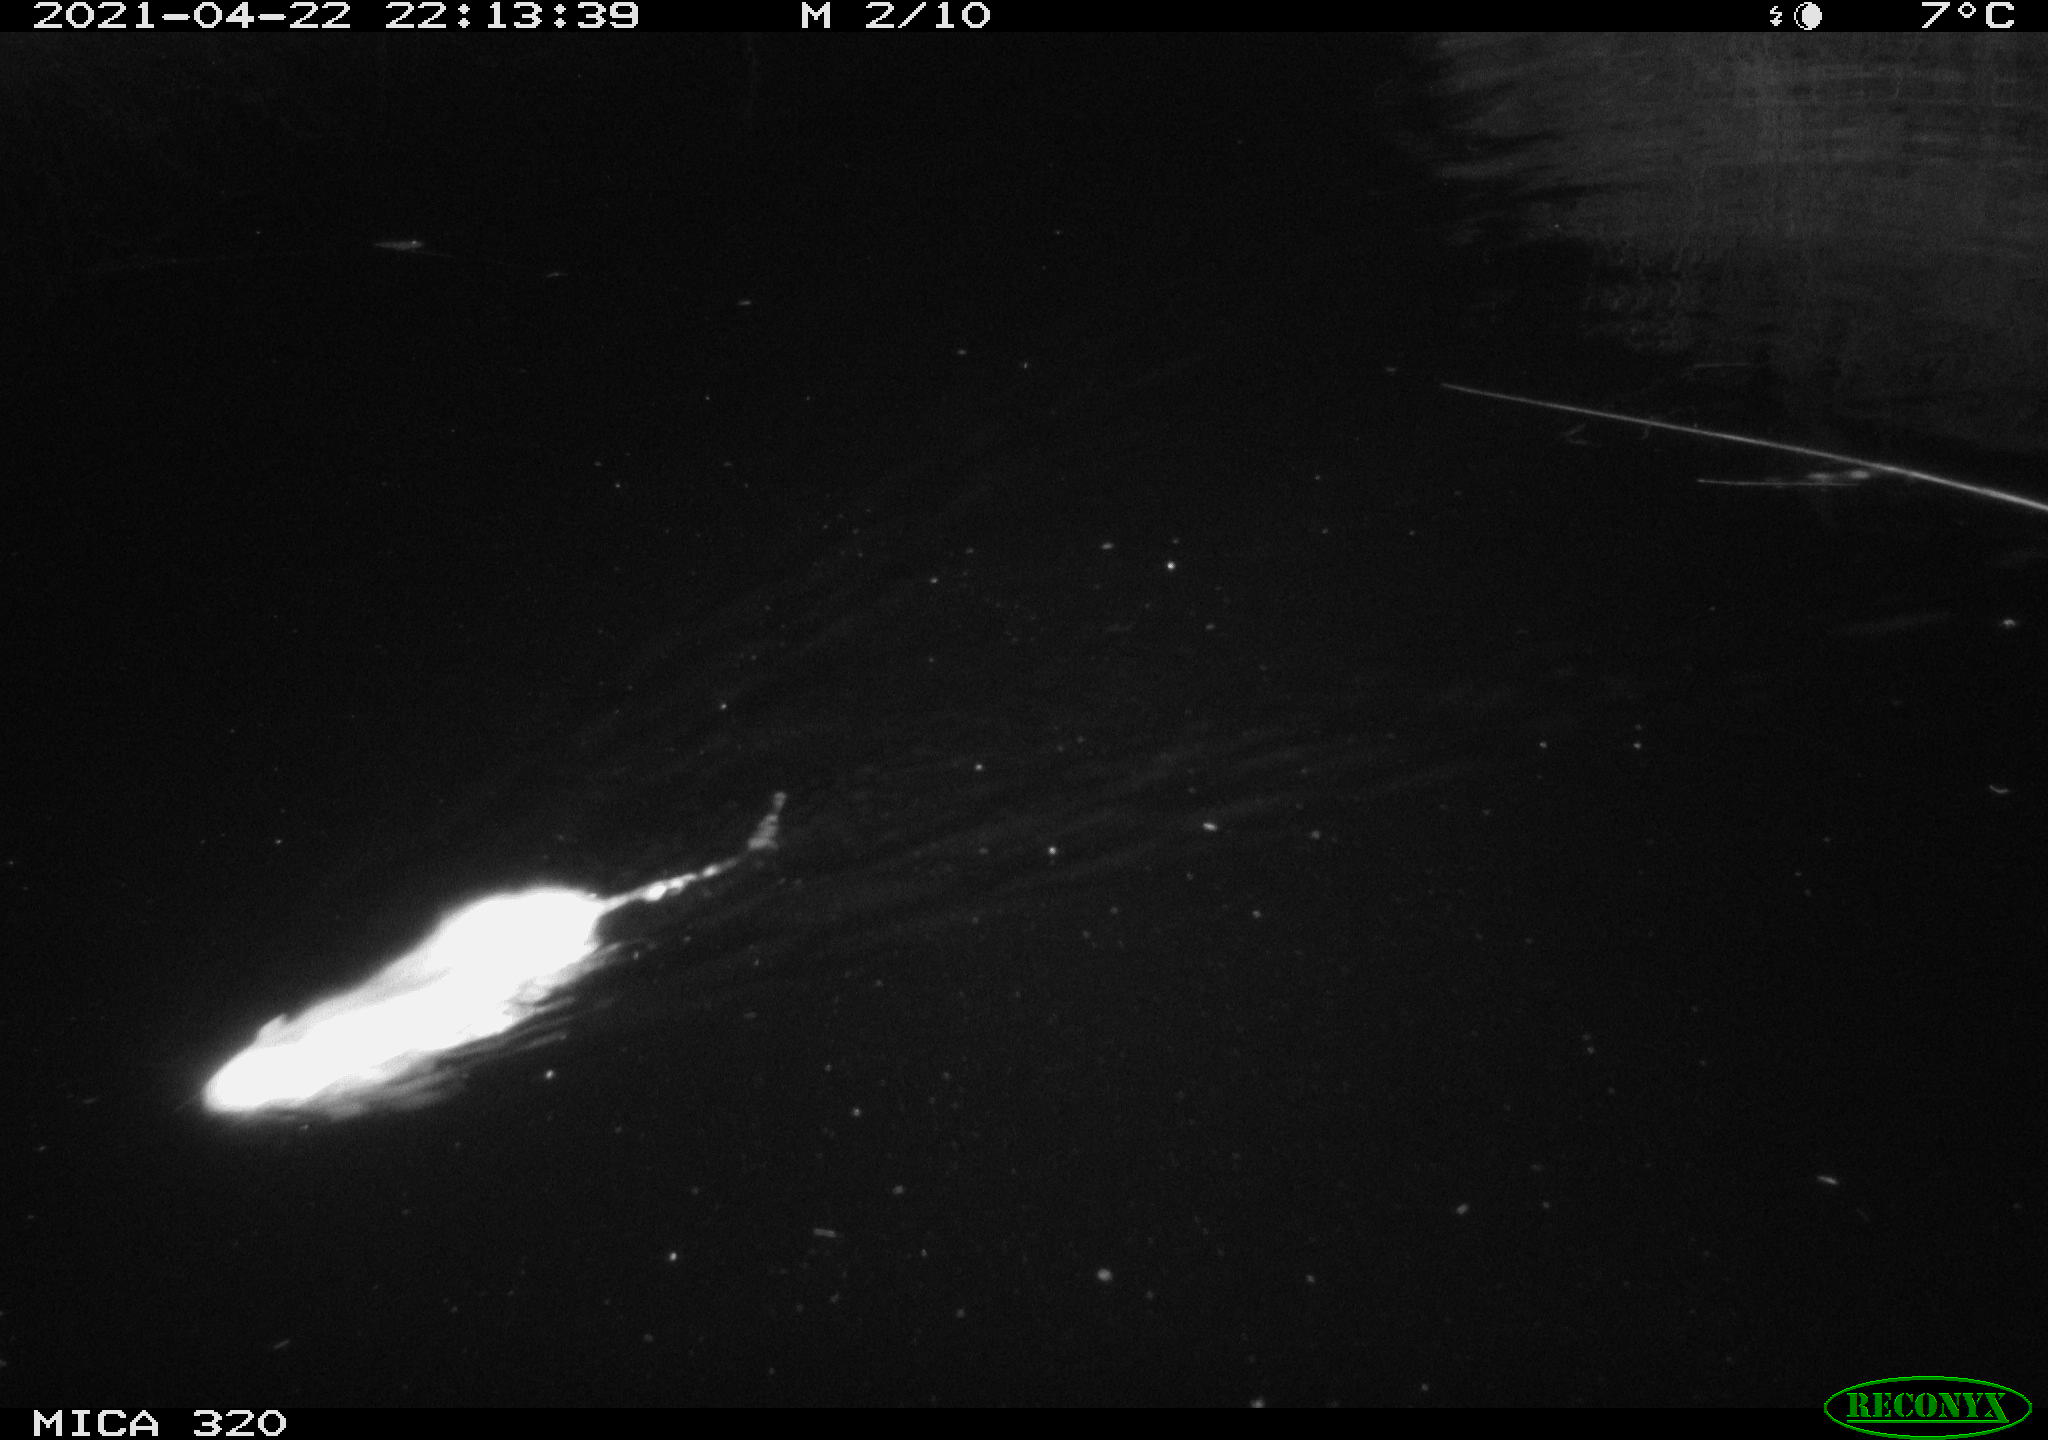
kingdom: Animalia
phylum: Chordata
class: Mammalia
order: Rodentia
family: Muridae
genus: Rattus
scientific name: Rattus norvegicus
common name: Brown rat
